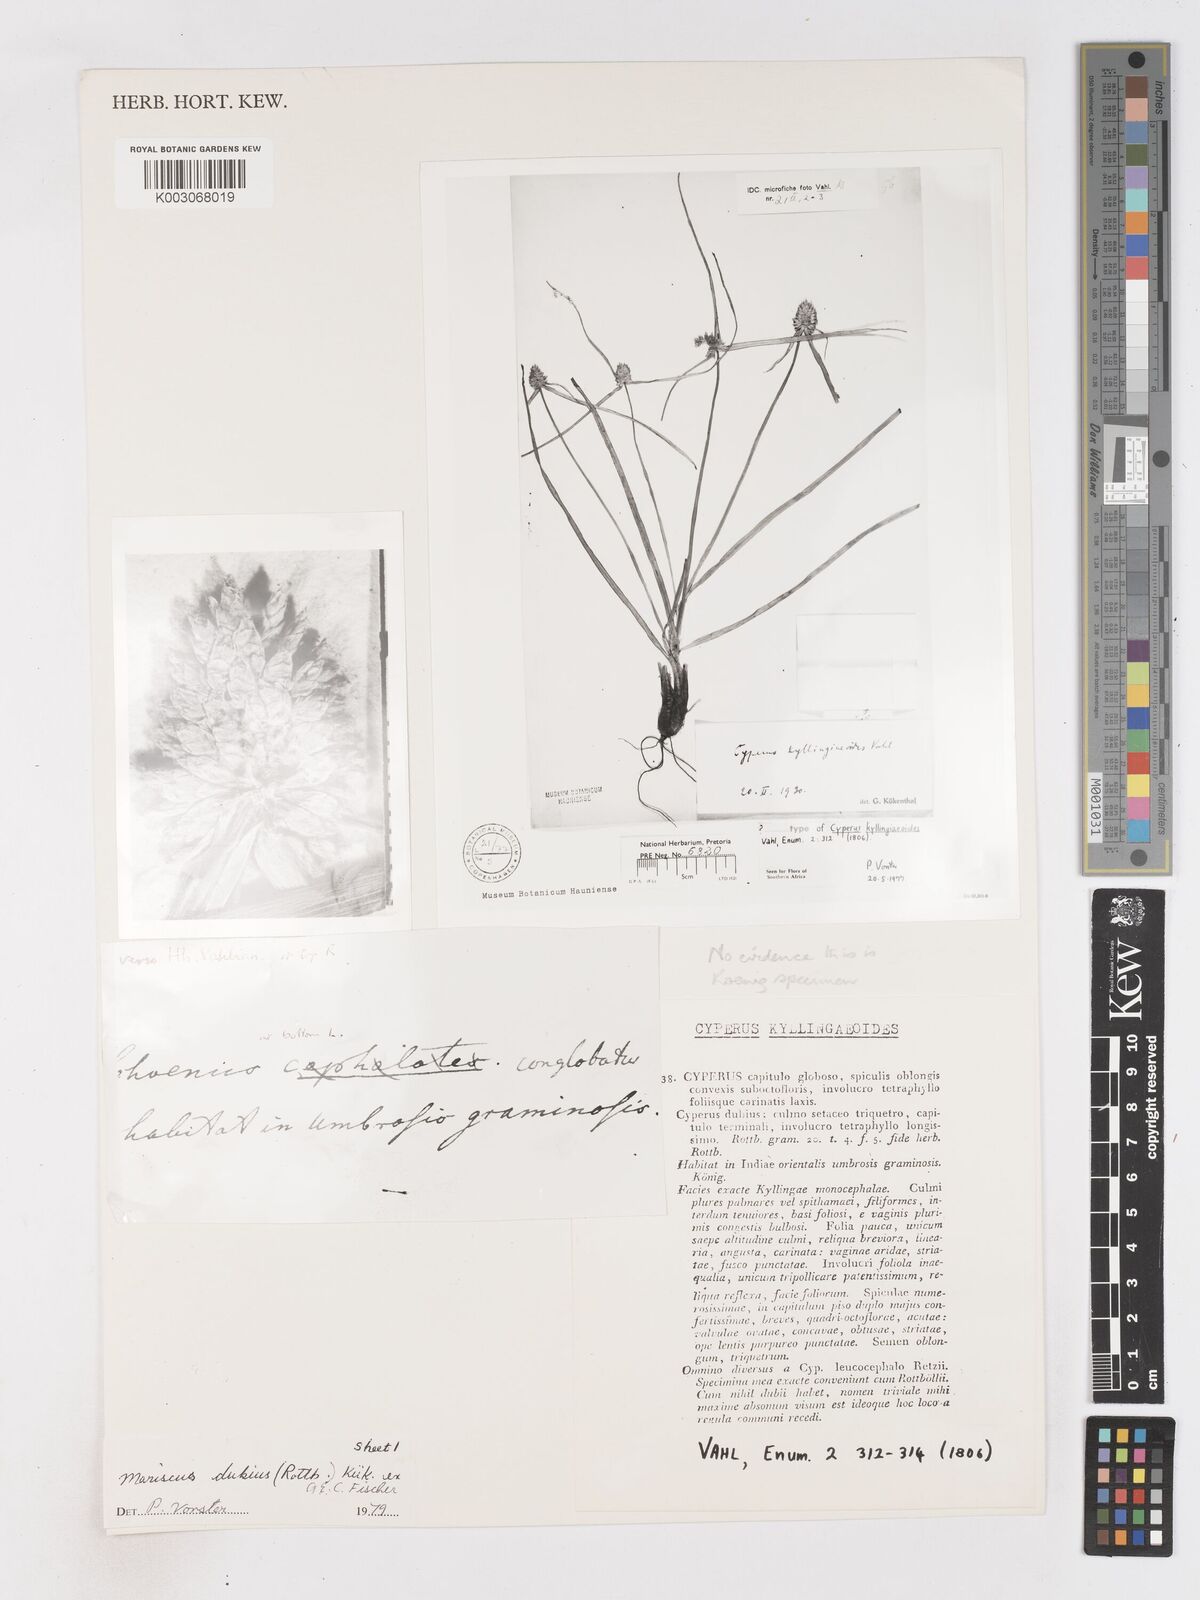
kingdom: Plantae
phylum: Tracheophyta
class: Liliopsida
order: Poales
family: Cyperaceae
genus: Cyperus
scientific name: Cyperus dubius
